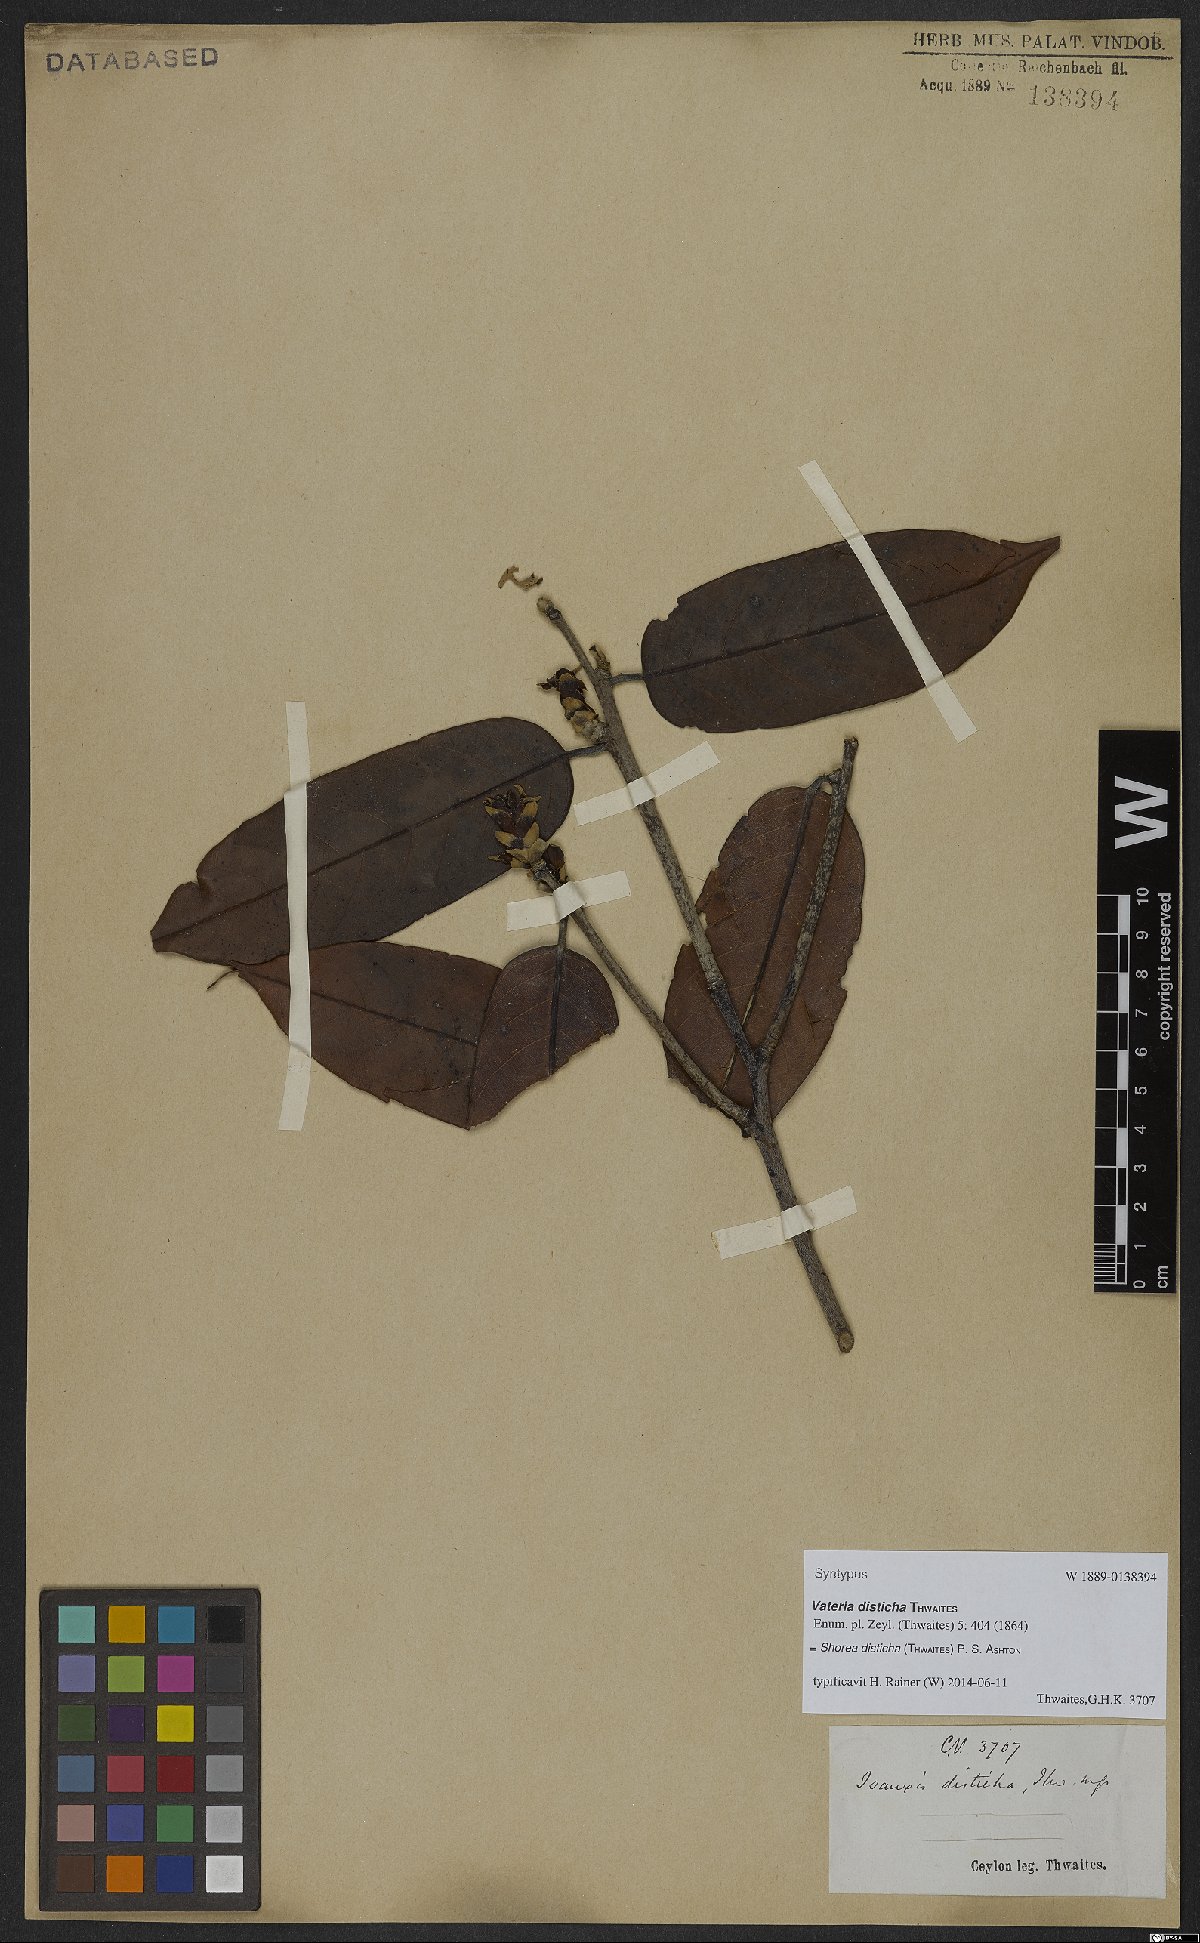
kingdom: Plantae
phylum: Tracheophyta
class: Magnoliopsida
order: Malvales
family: Dipterocarpaceae
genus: Doona
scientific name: Doona disticha
